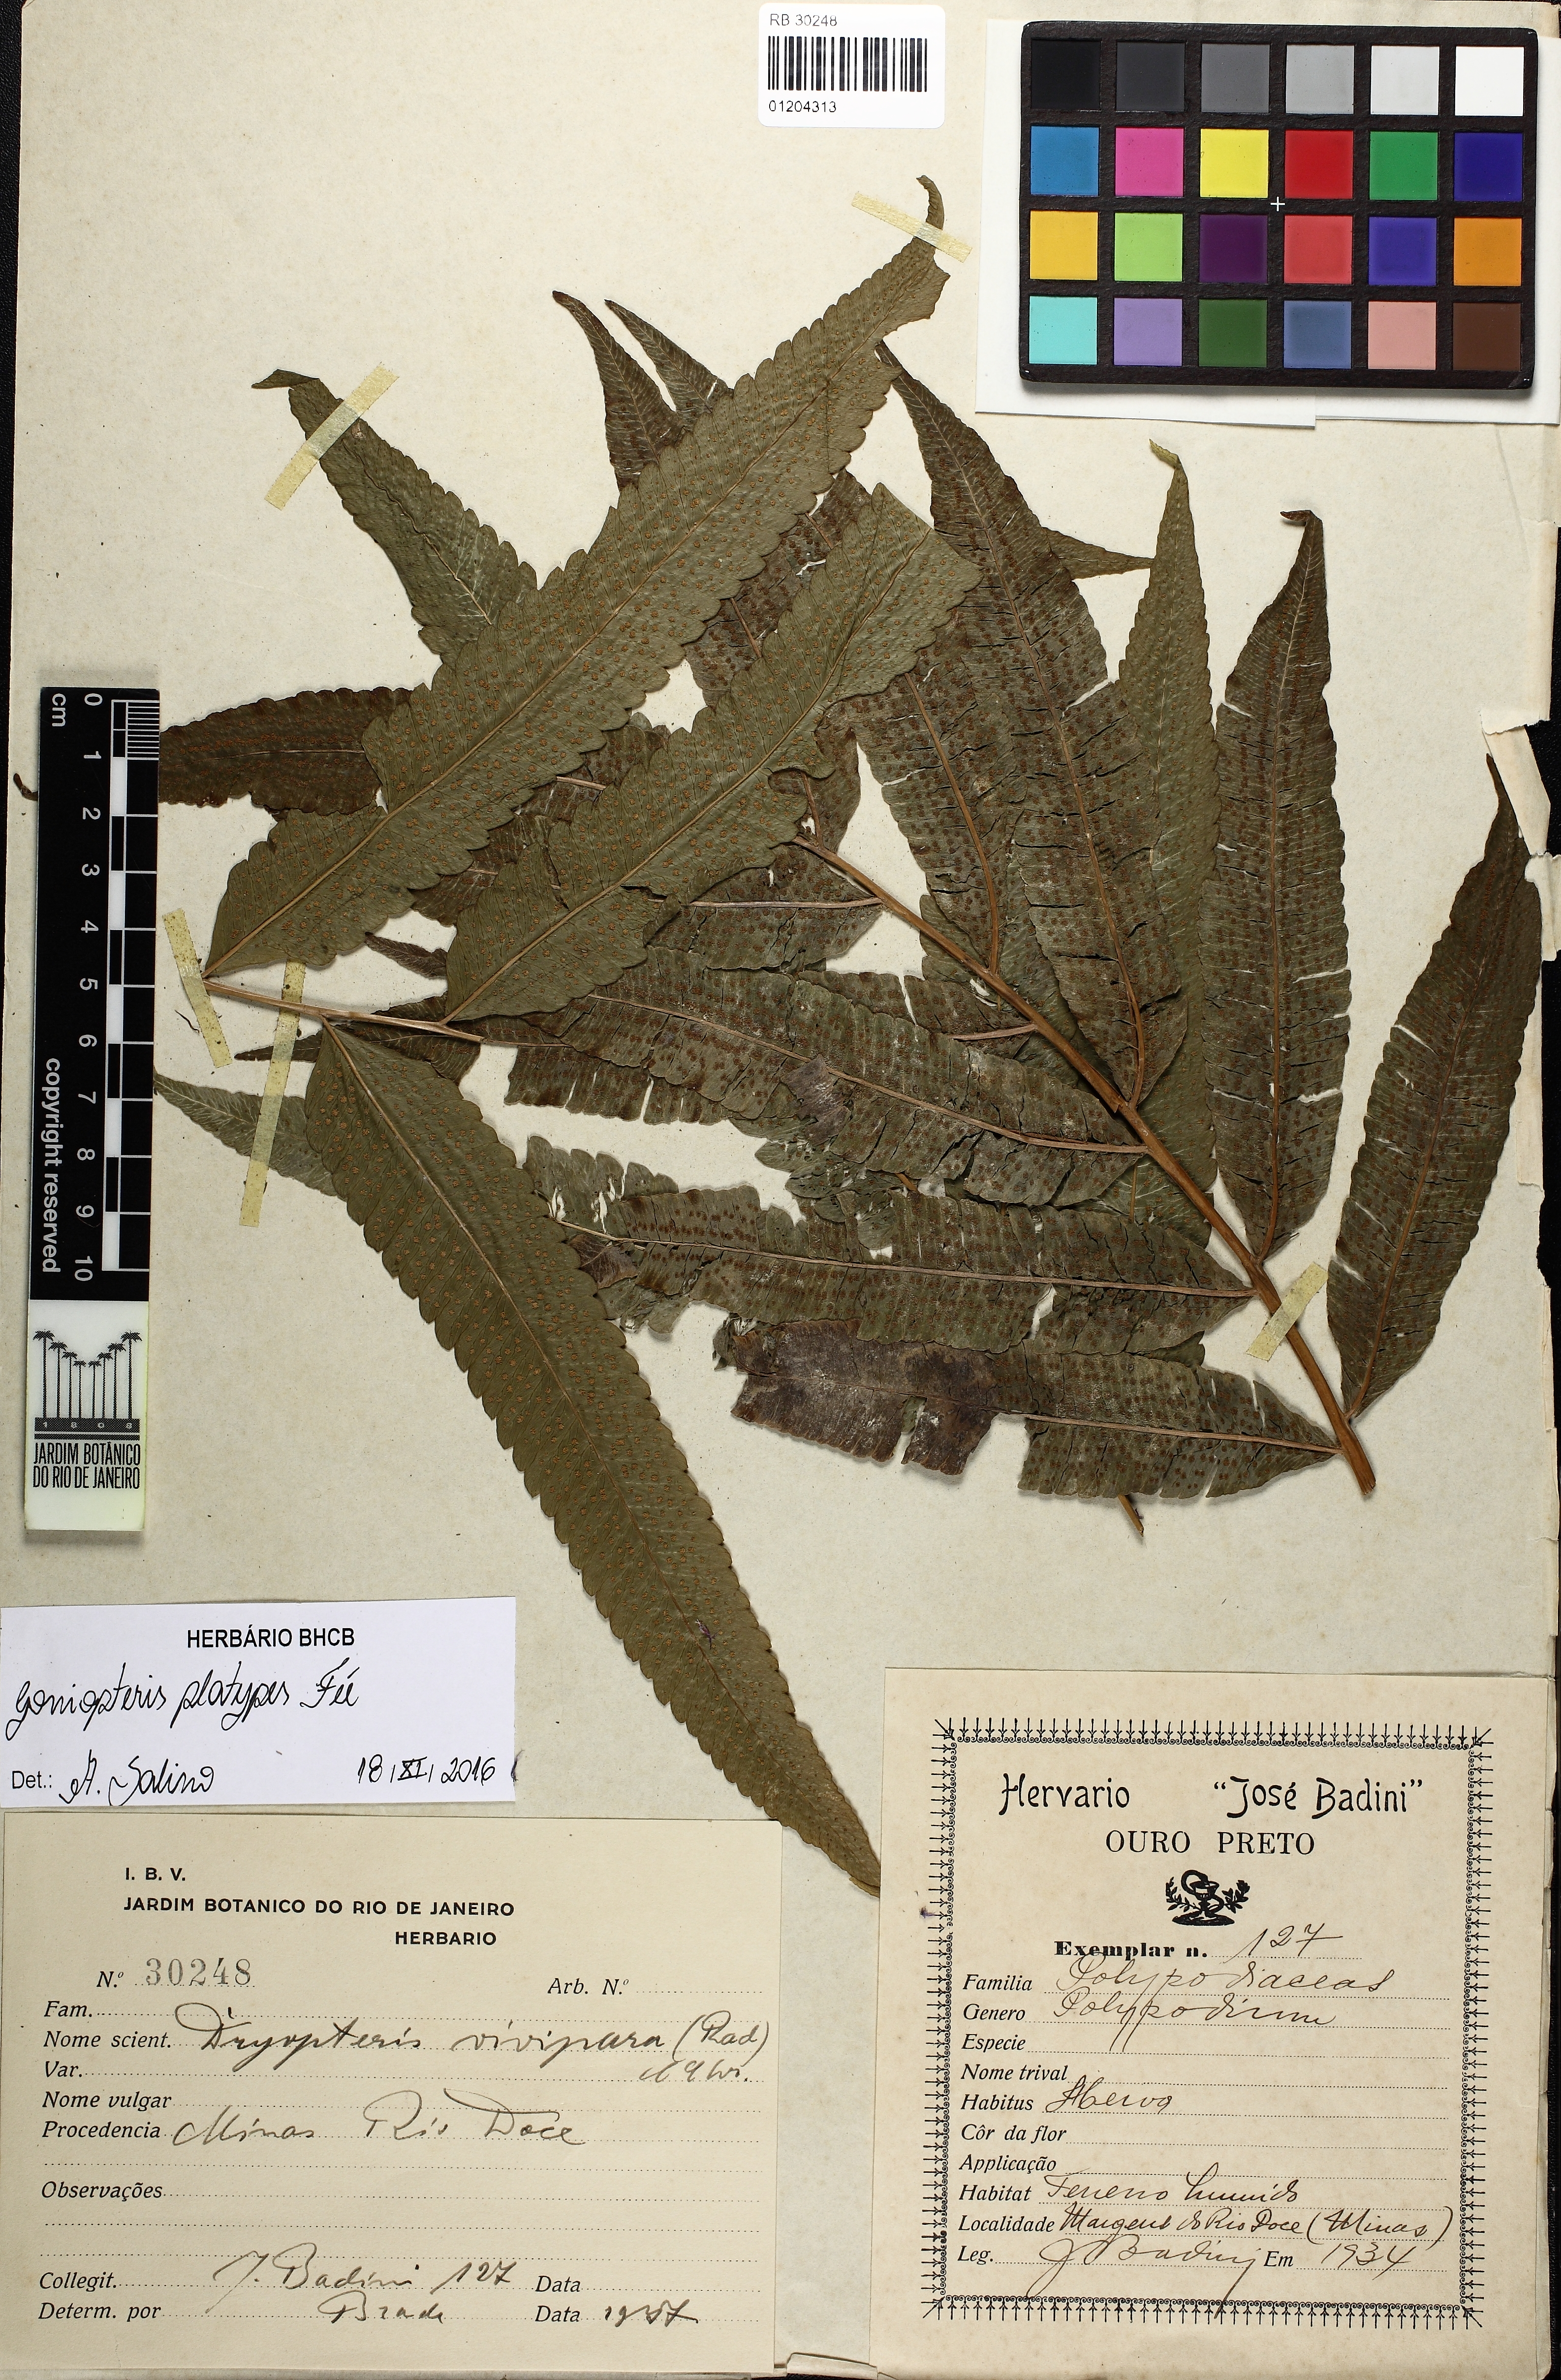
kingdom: Plantae
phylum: Tracheophyta
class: Polypodiopsida
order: Polypodiales
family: Thelypteridaceae
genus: Goniopteris
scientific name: Goniopteris platypes
